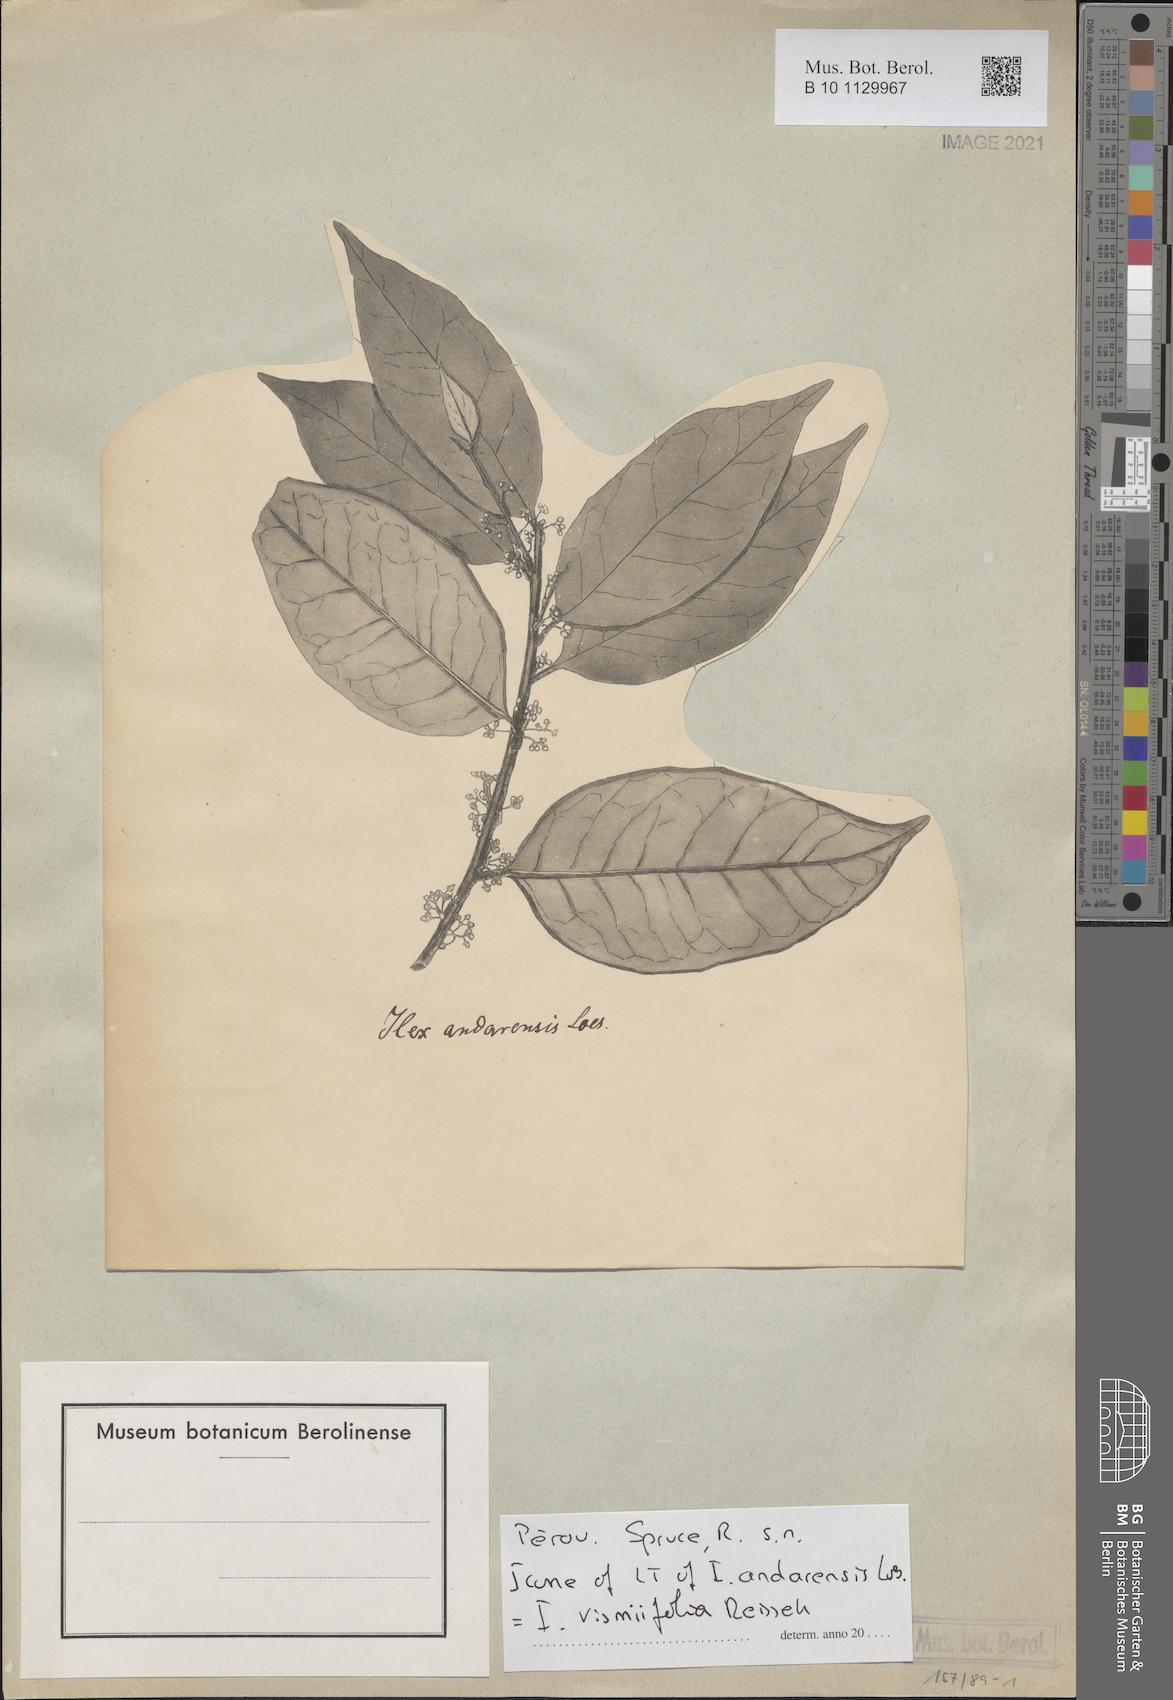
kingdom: Plantae
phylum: Tracheophyta
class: Magnoliopsida
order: Aquifoliales
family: Aquifoliaceae
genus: Ilex
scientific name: Ilex vismiifolia
